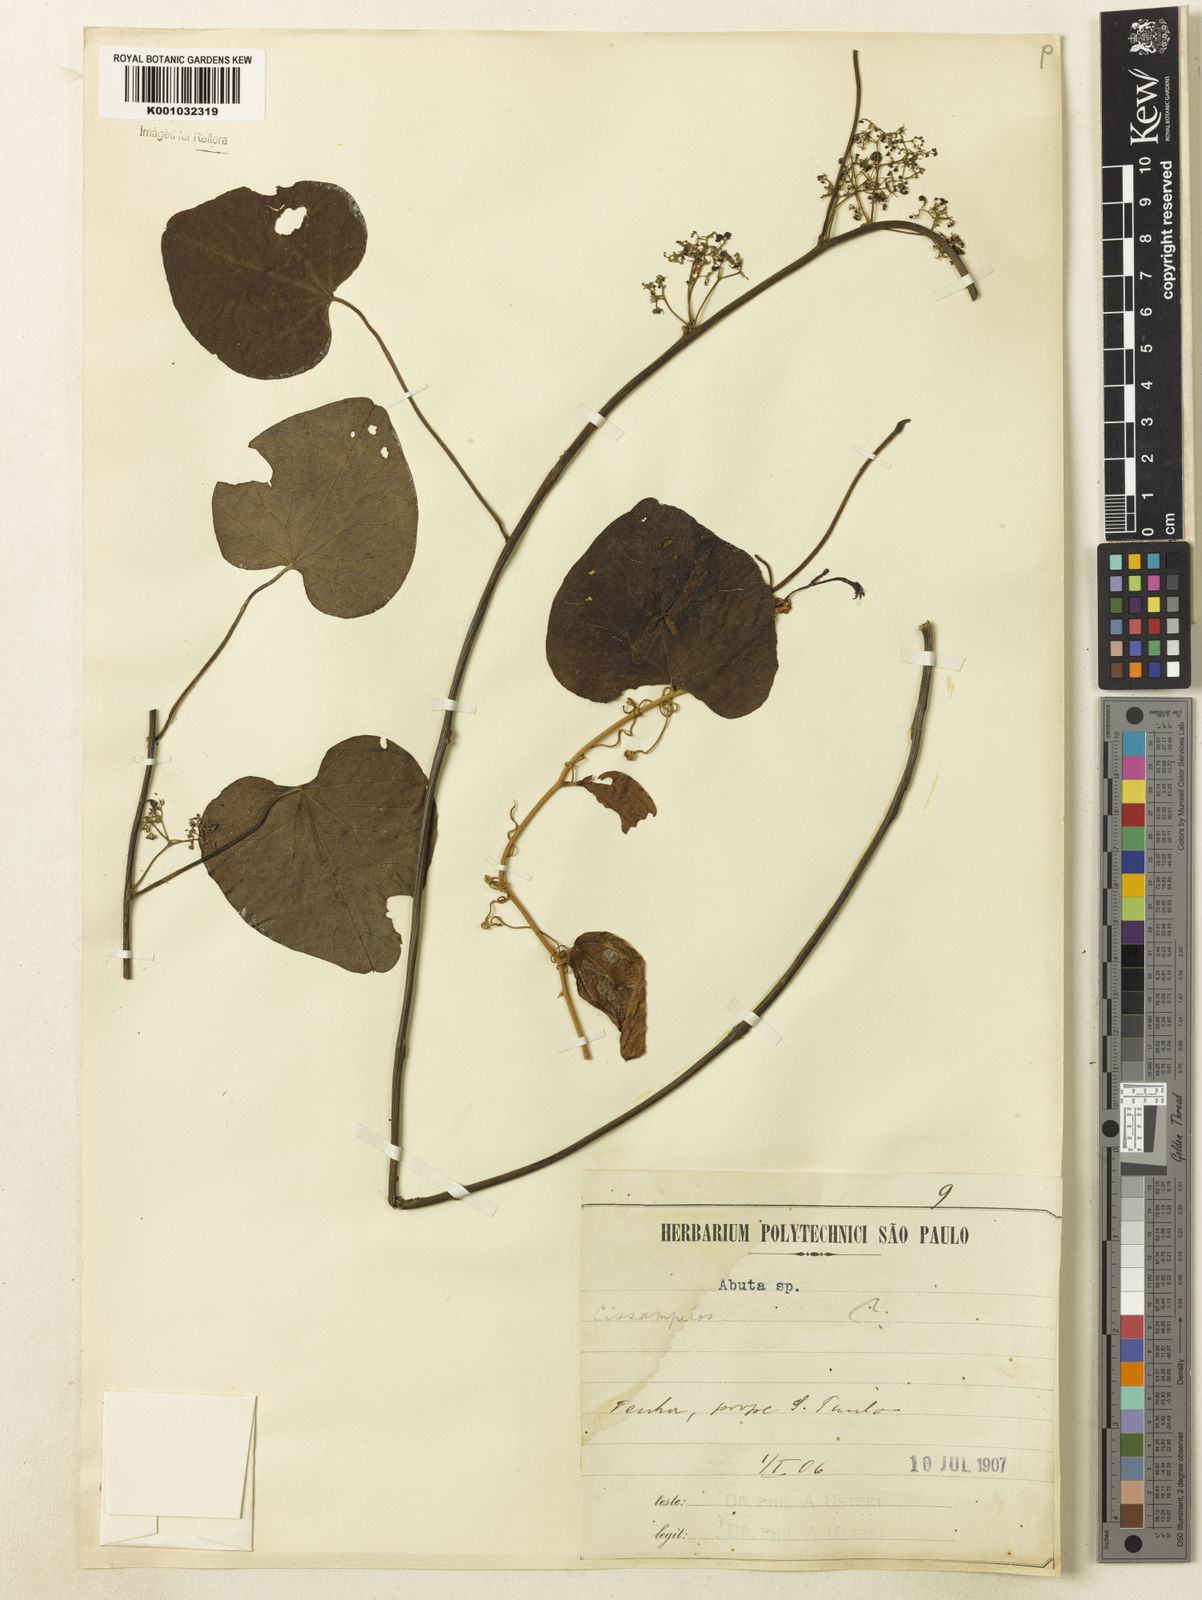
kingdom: Plantae
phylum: Tracheophyta
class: Magnoliopsida
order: Ranunculales
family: Menispermaceae
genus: Cissampelos
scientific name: Cissampelos
